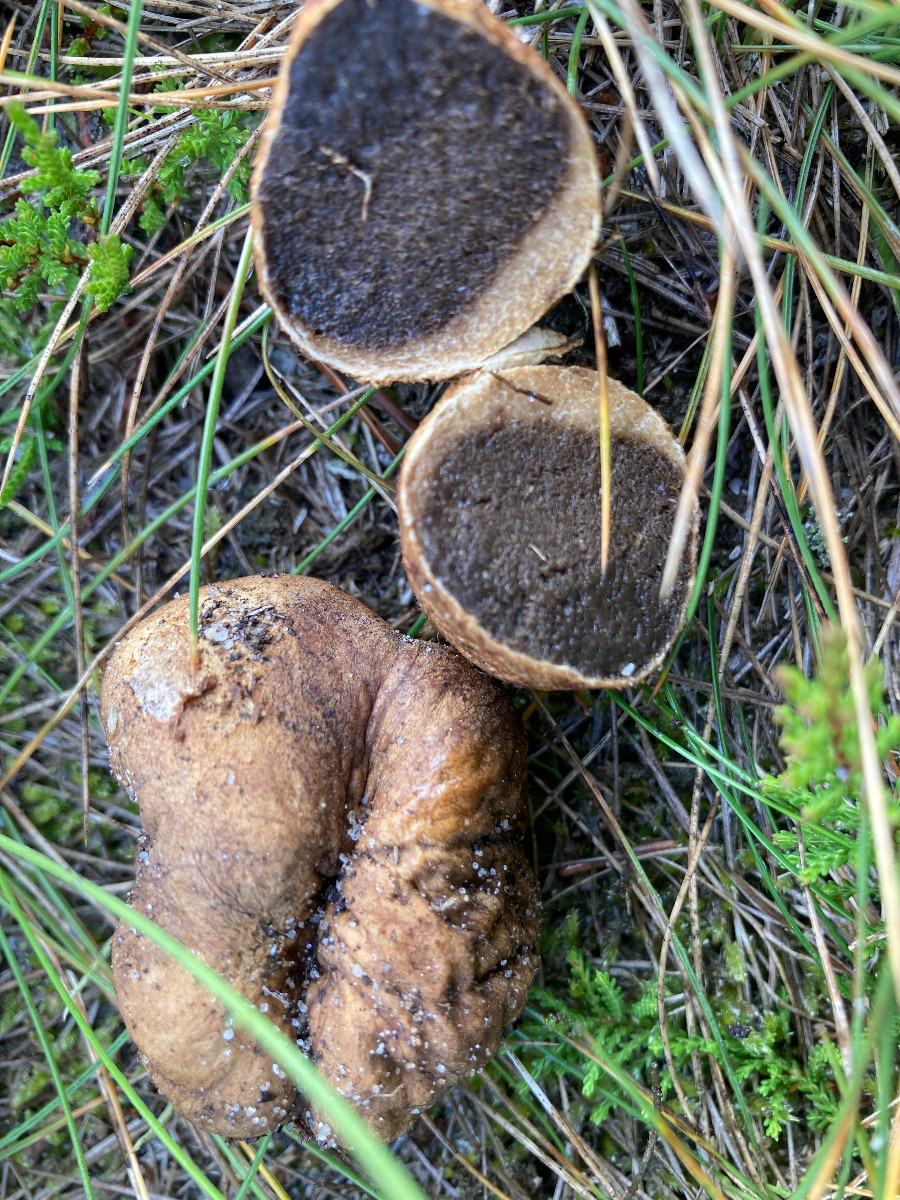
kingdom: Fungi
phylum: Basidiomycota
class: Agaricomycetes
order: Boletales
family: Rhizopogonaceae
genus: Rhizopogon
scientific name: Rhizopogon
